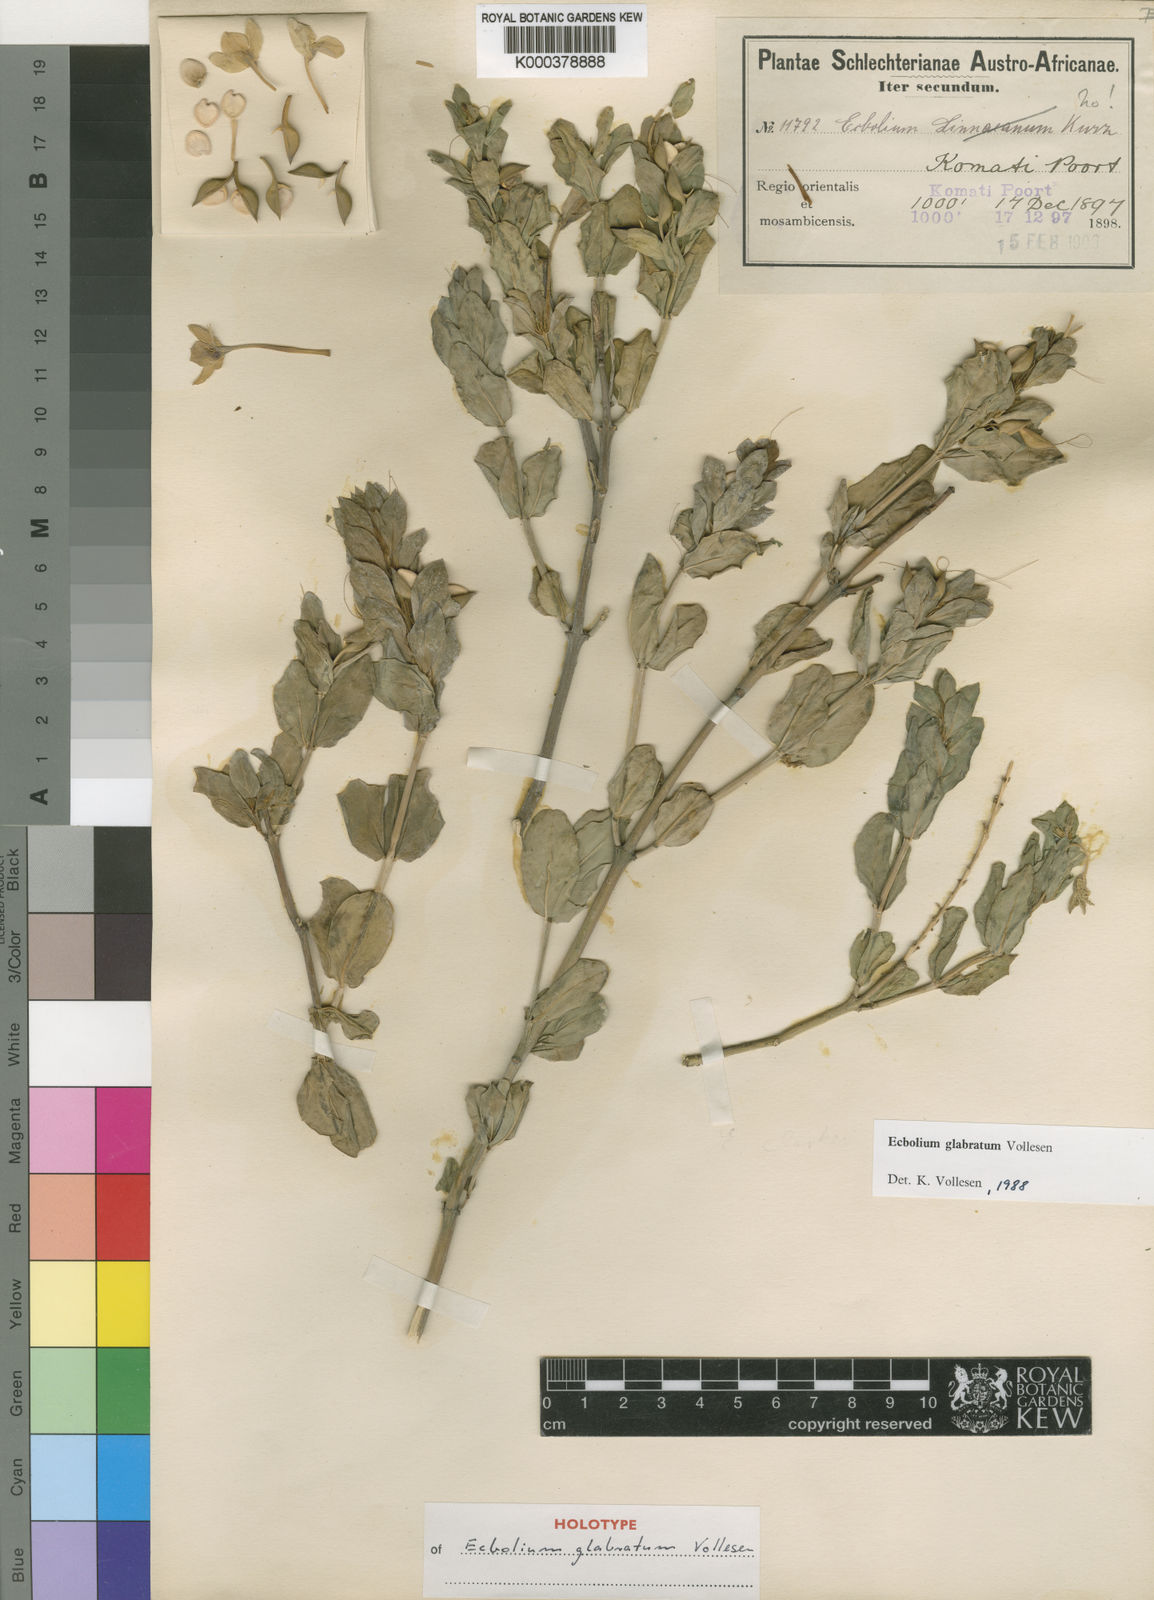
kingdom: Plantae
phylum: Tracheophyta
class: Magnoliopsida
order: Lamiales
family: Acanthaceae
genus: Ecbolium
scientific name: Ecbolium glabratum
